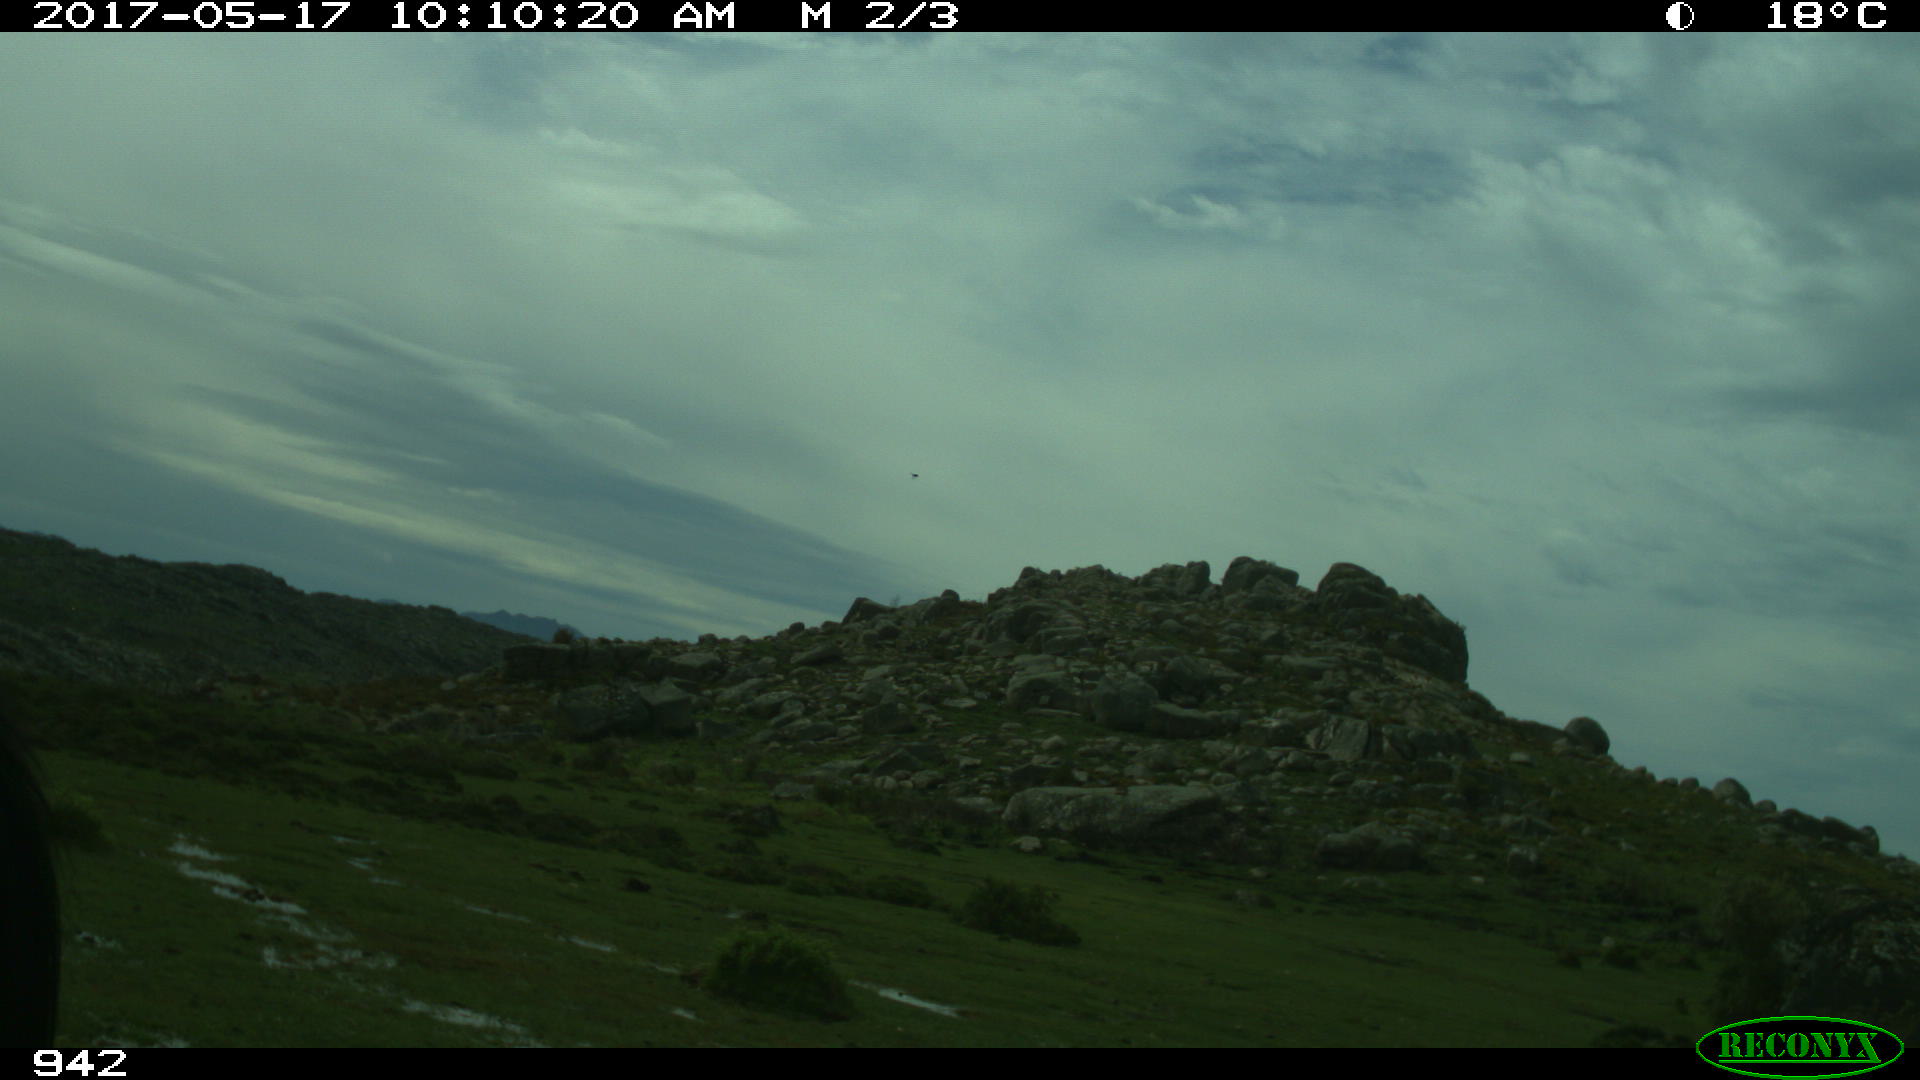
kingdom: Animalia
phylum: Chordata
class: Mammalia
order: Perissodactyla
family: Equidae
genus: Equus
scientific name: Equus caballus
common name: Horse
